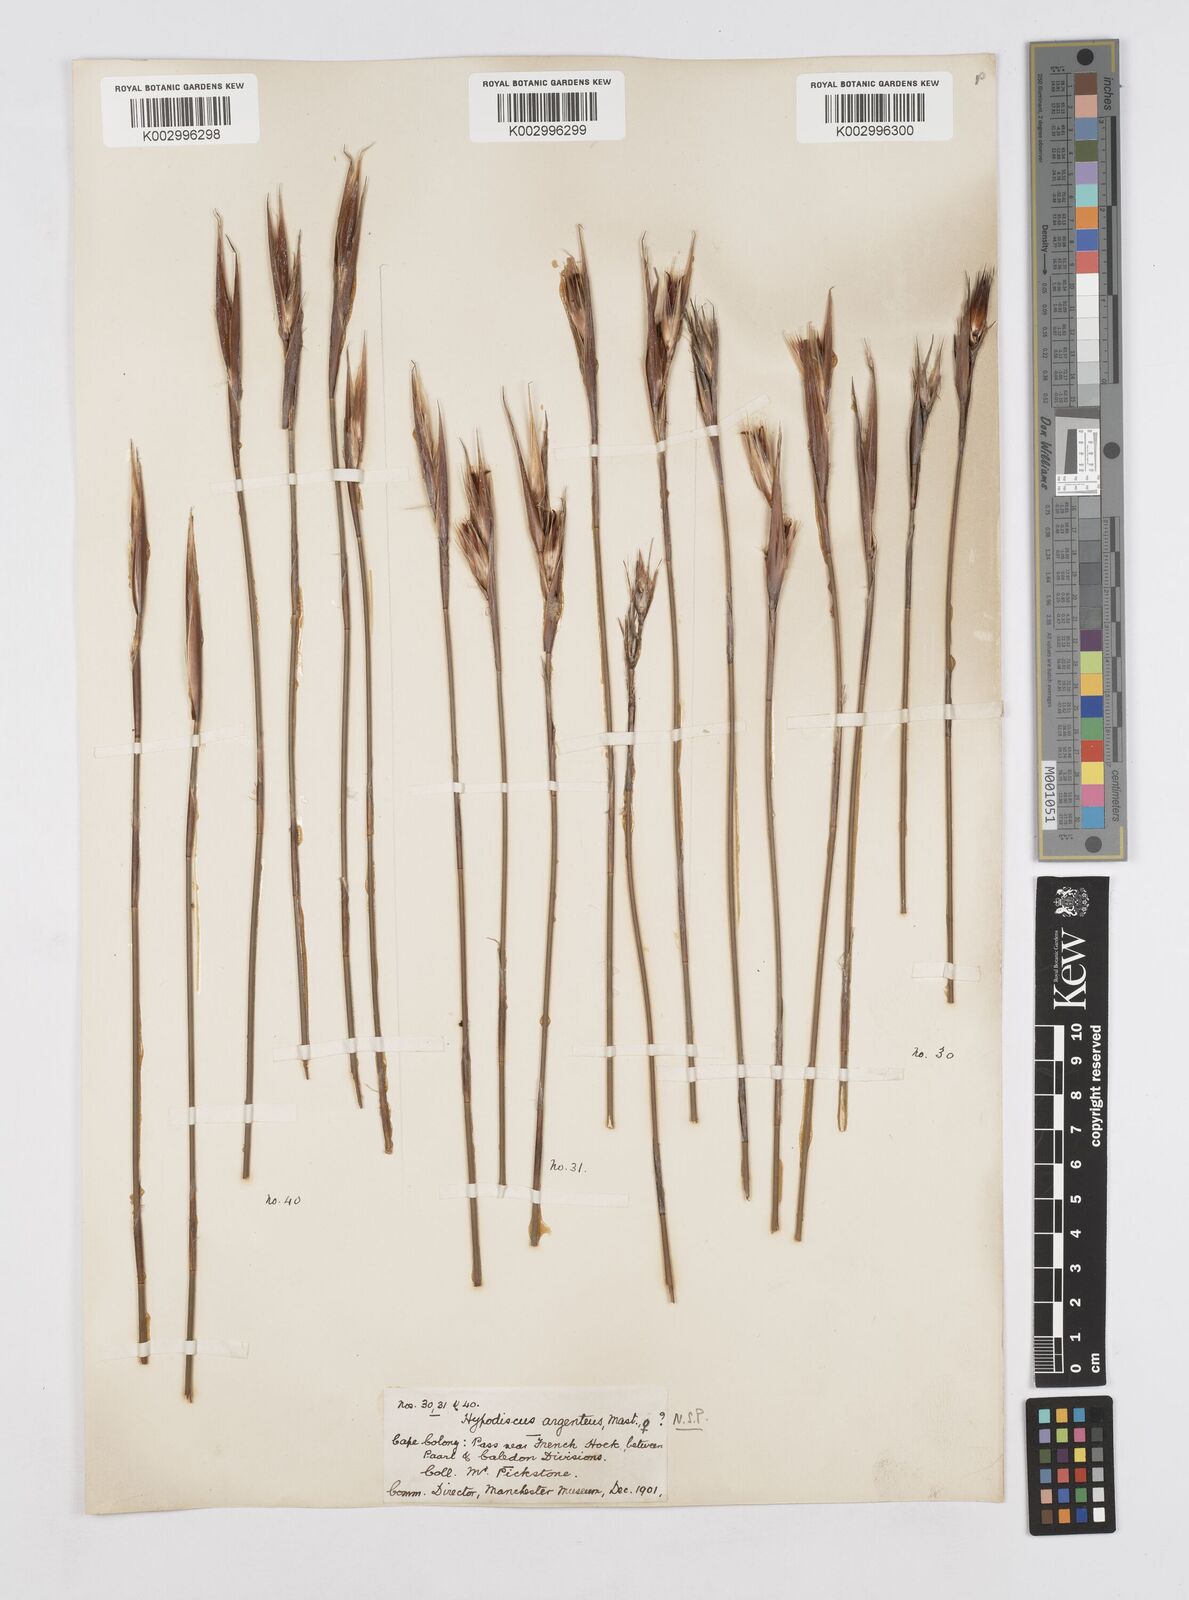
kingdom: Plantae
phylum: Tracheophyta
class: Liliopsida
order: Poales
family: Restionaceae
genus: Hypodiscus
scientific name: Hypodiscus argenteus
